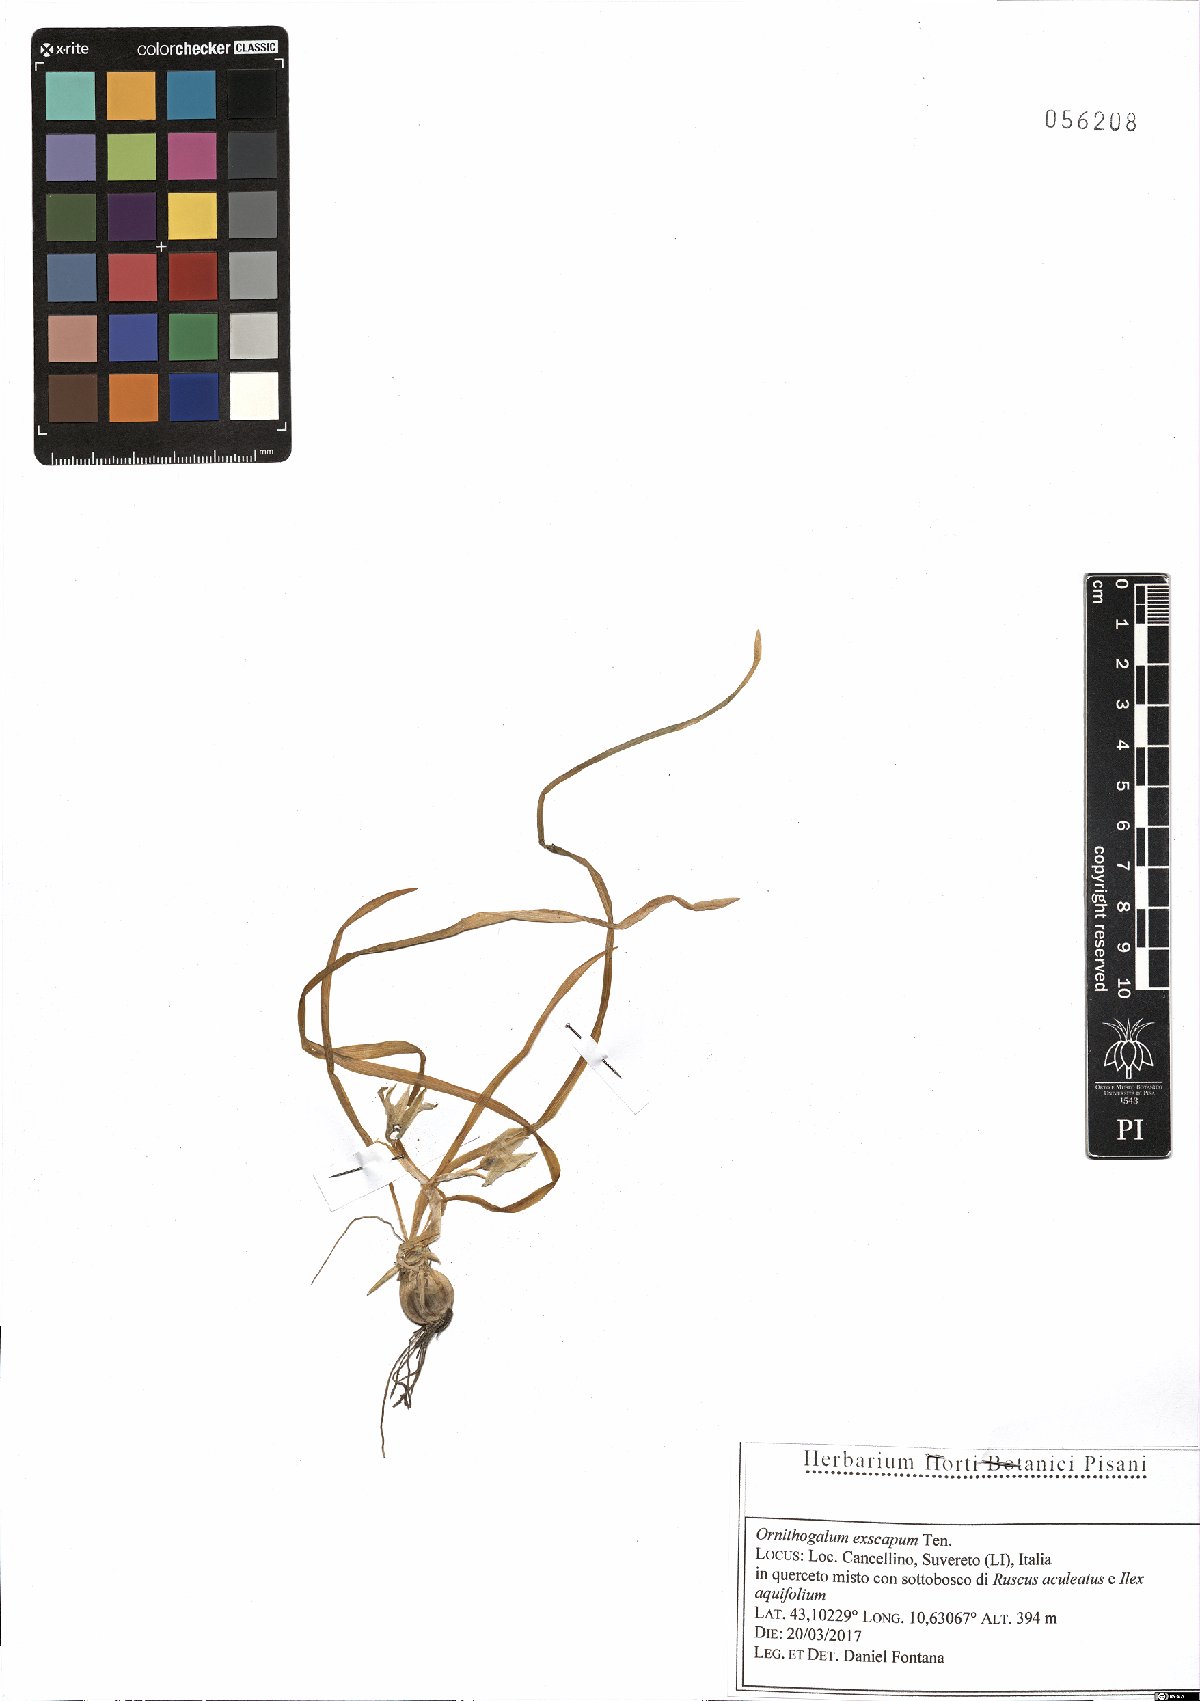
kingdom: Plantae
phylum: Tracheophyta
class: Liliopsida
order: Asparagales
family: Asparagaceae
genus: Ornithogalum
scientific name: Ornithogalum exscapum
